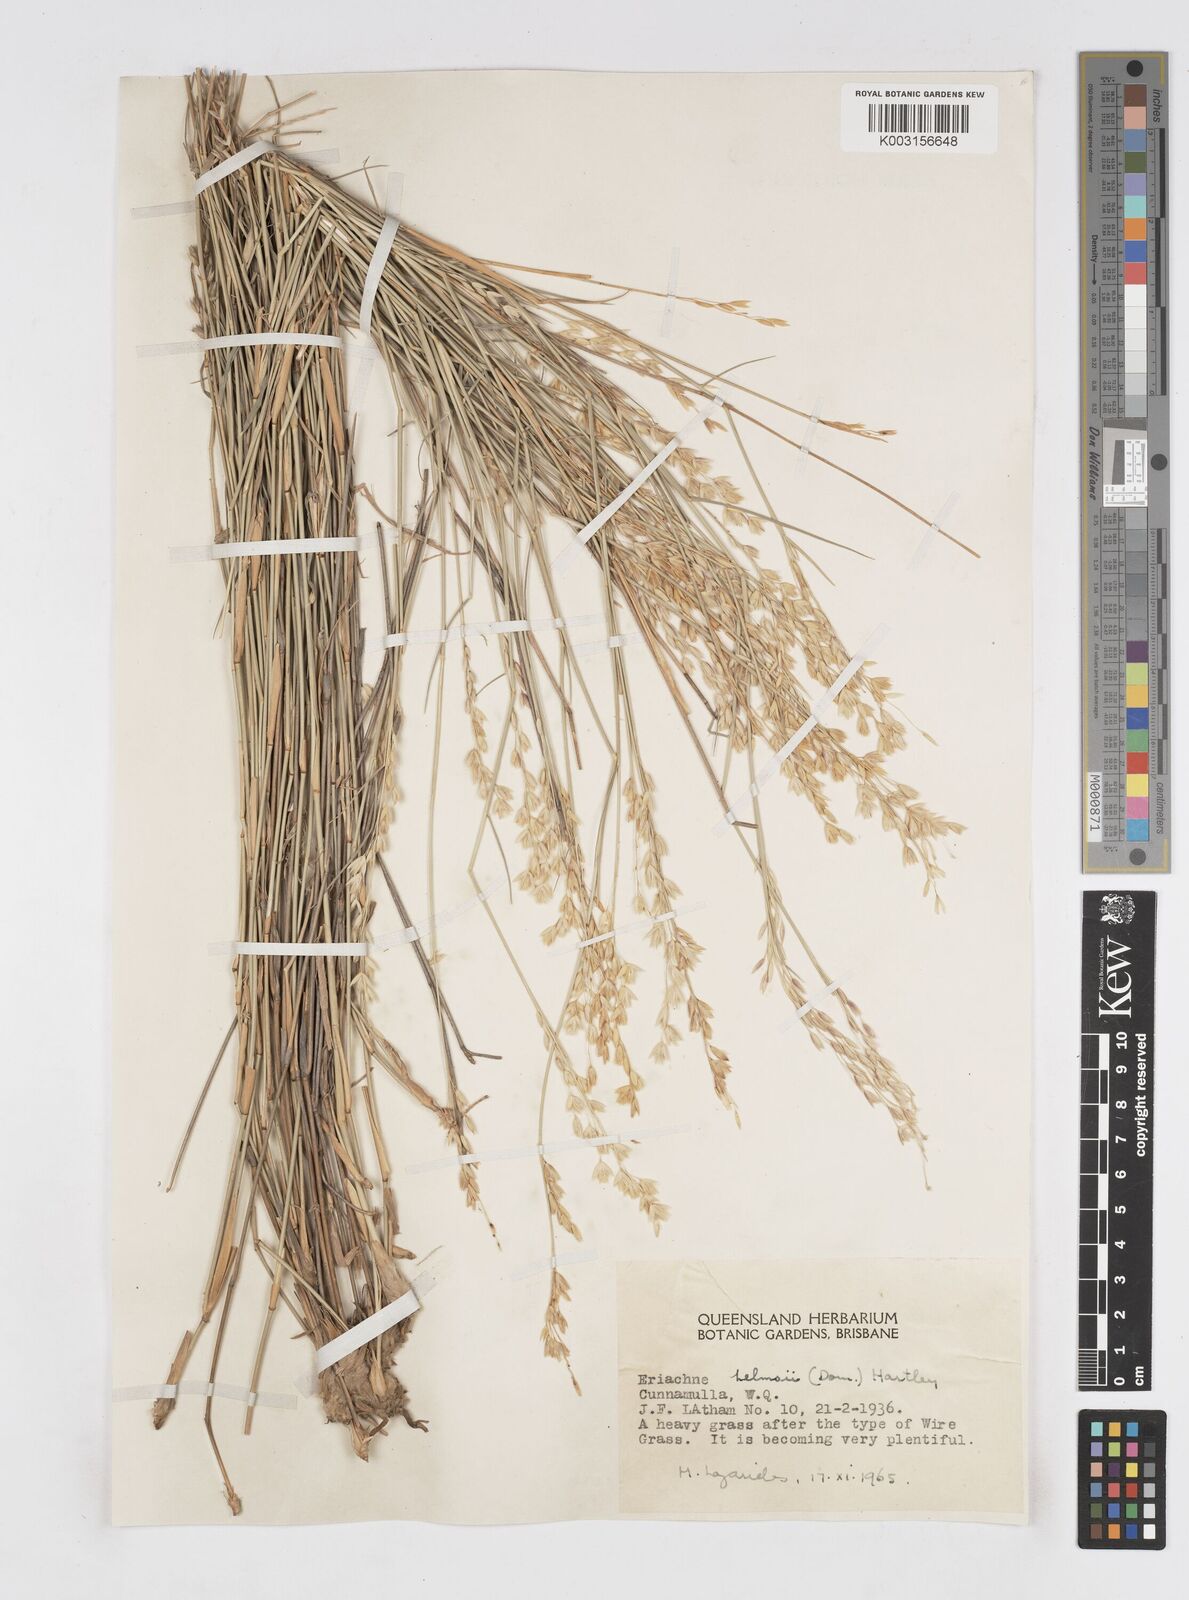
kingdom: Plantae
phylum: Tracheophyta
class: Liliopsida
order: Poales
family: Poaceae
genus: Eriachne
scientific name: Eriachne helmsii
